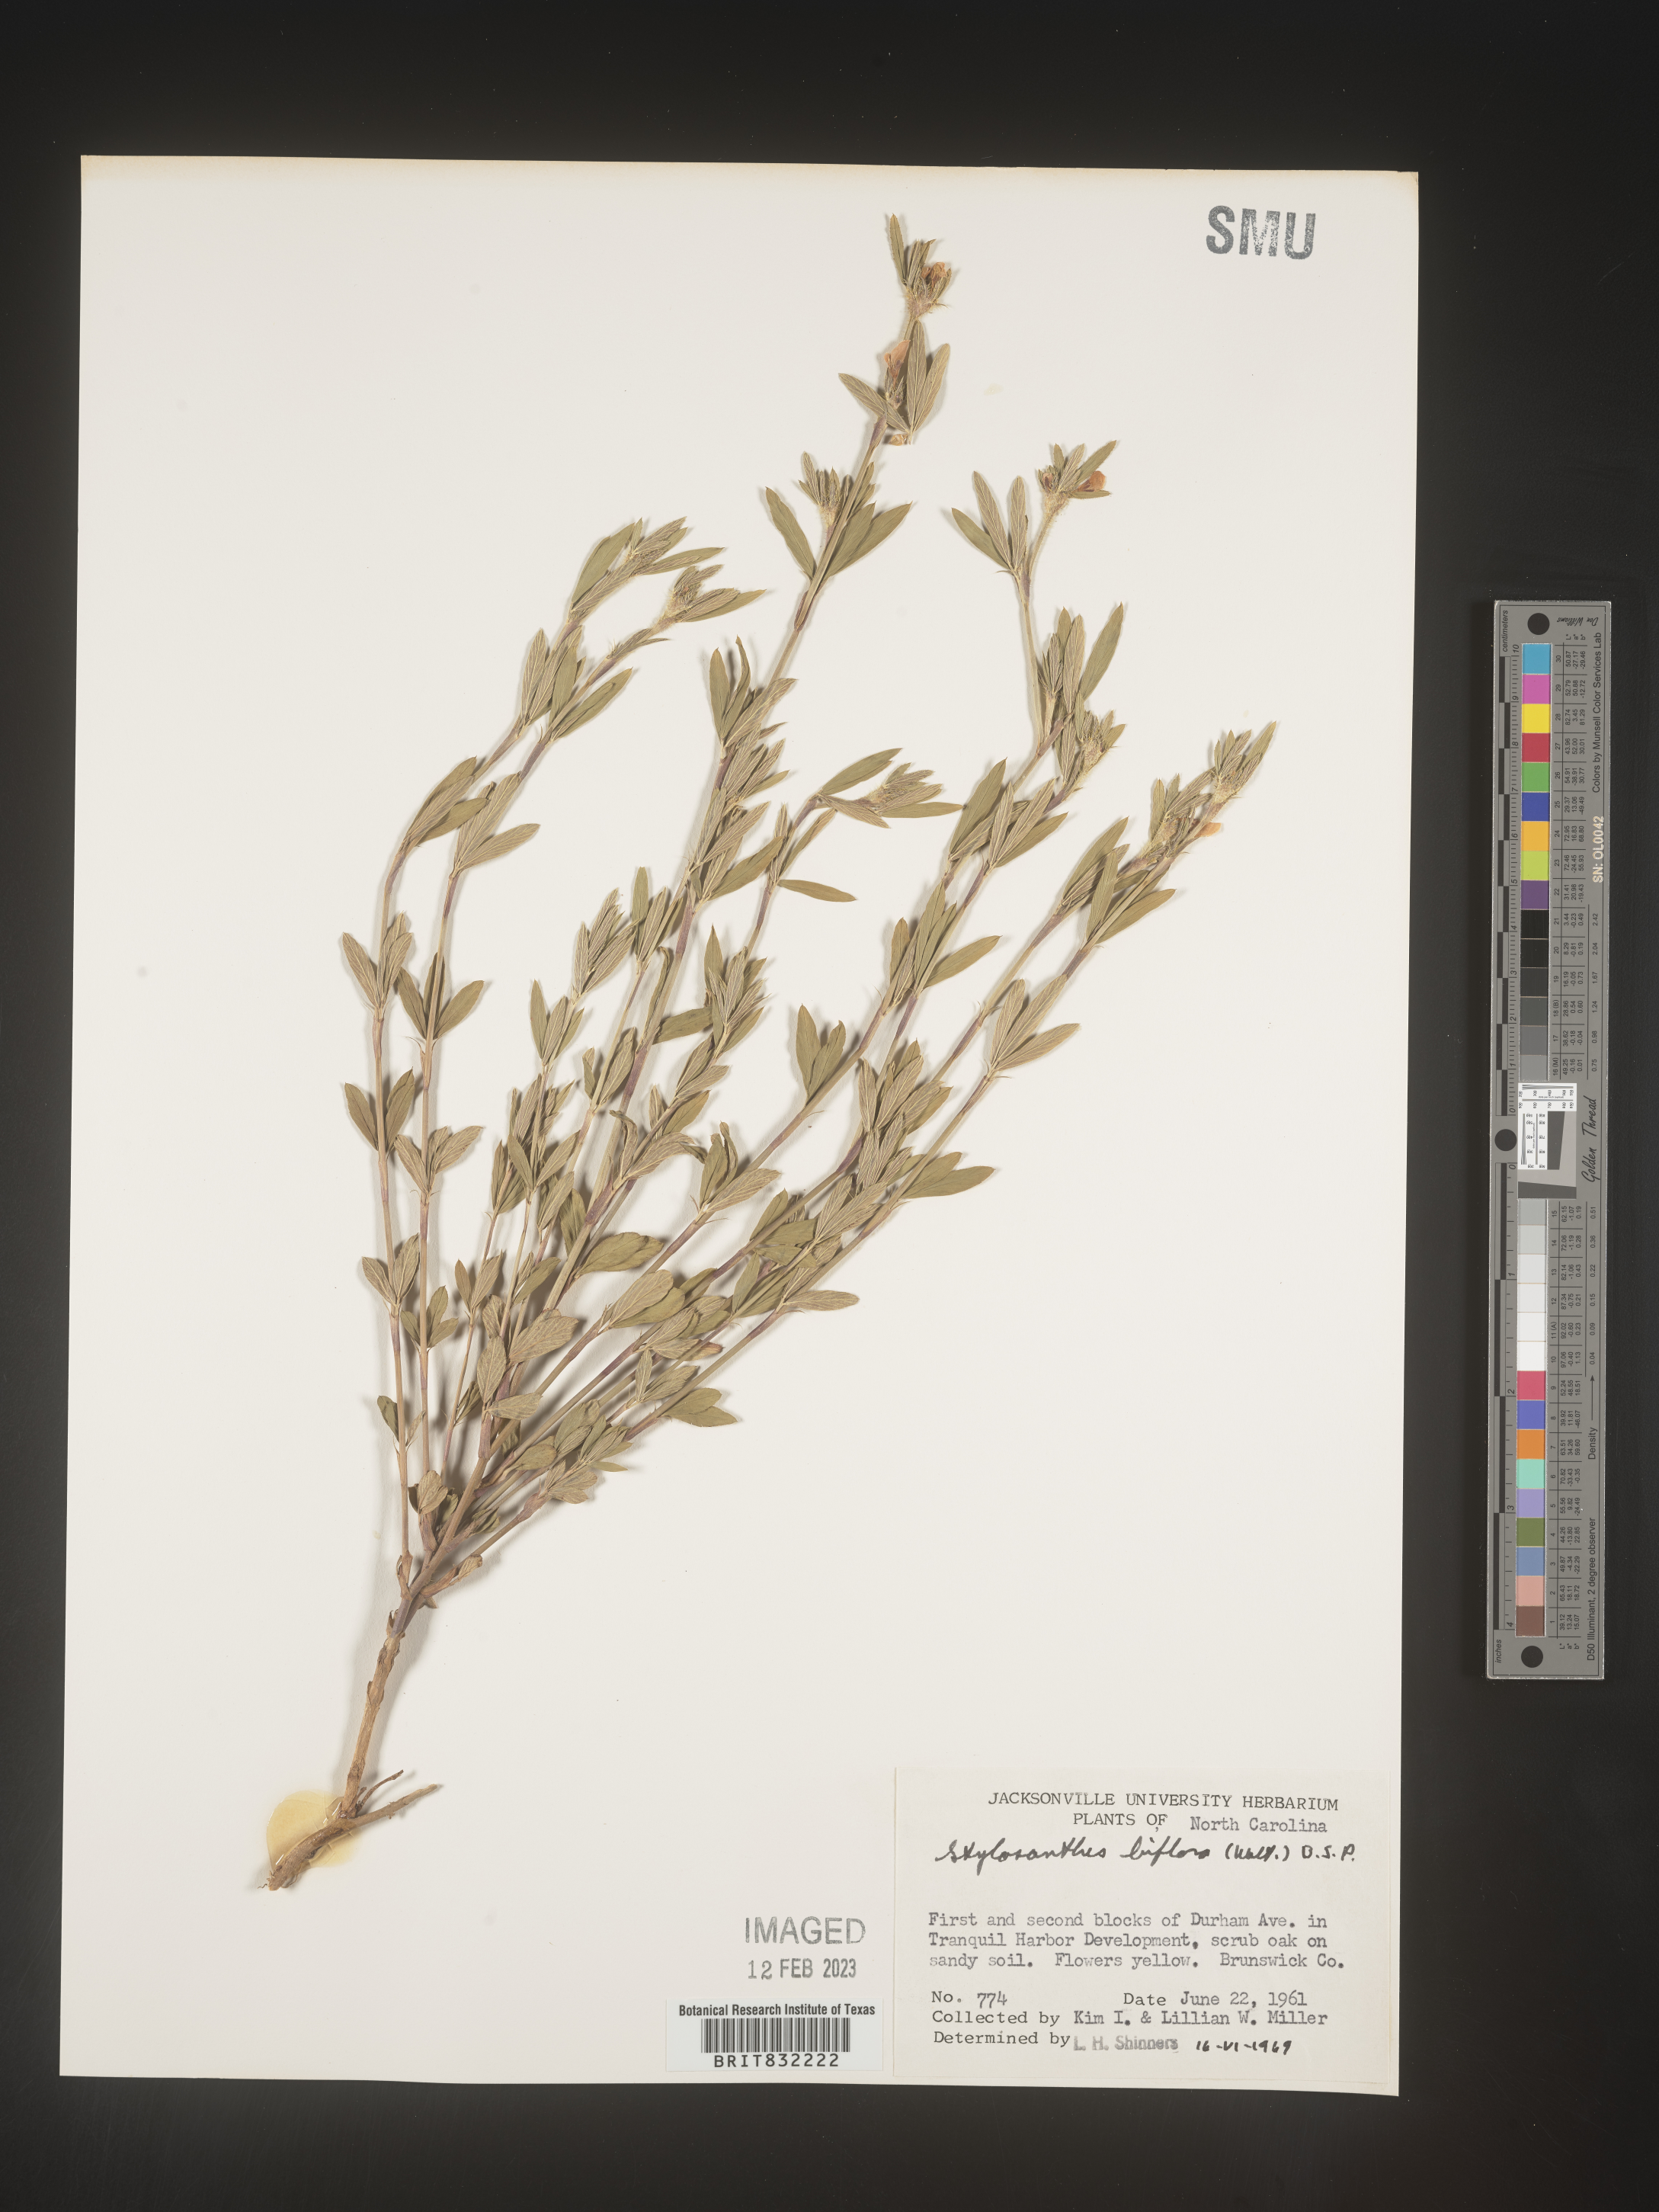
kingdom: Plantae
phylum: Tracheophyta
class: Magnoliopsida
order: Fabales
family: Fabaceae
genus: Stylosanthes
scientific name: Stylosanthes biflora
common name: Two-flower pencil-flower
